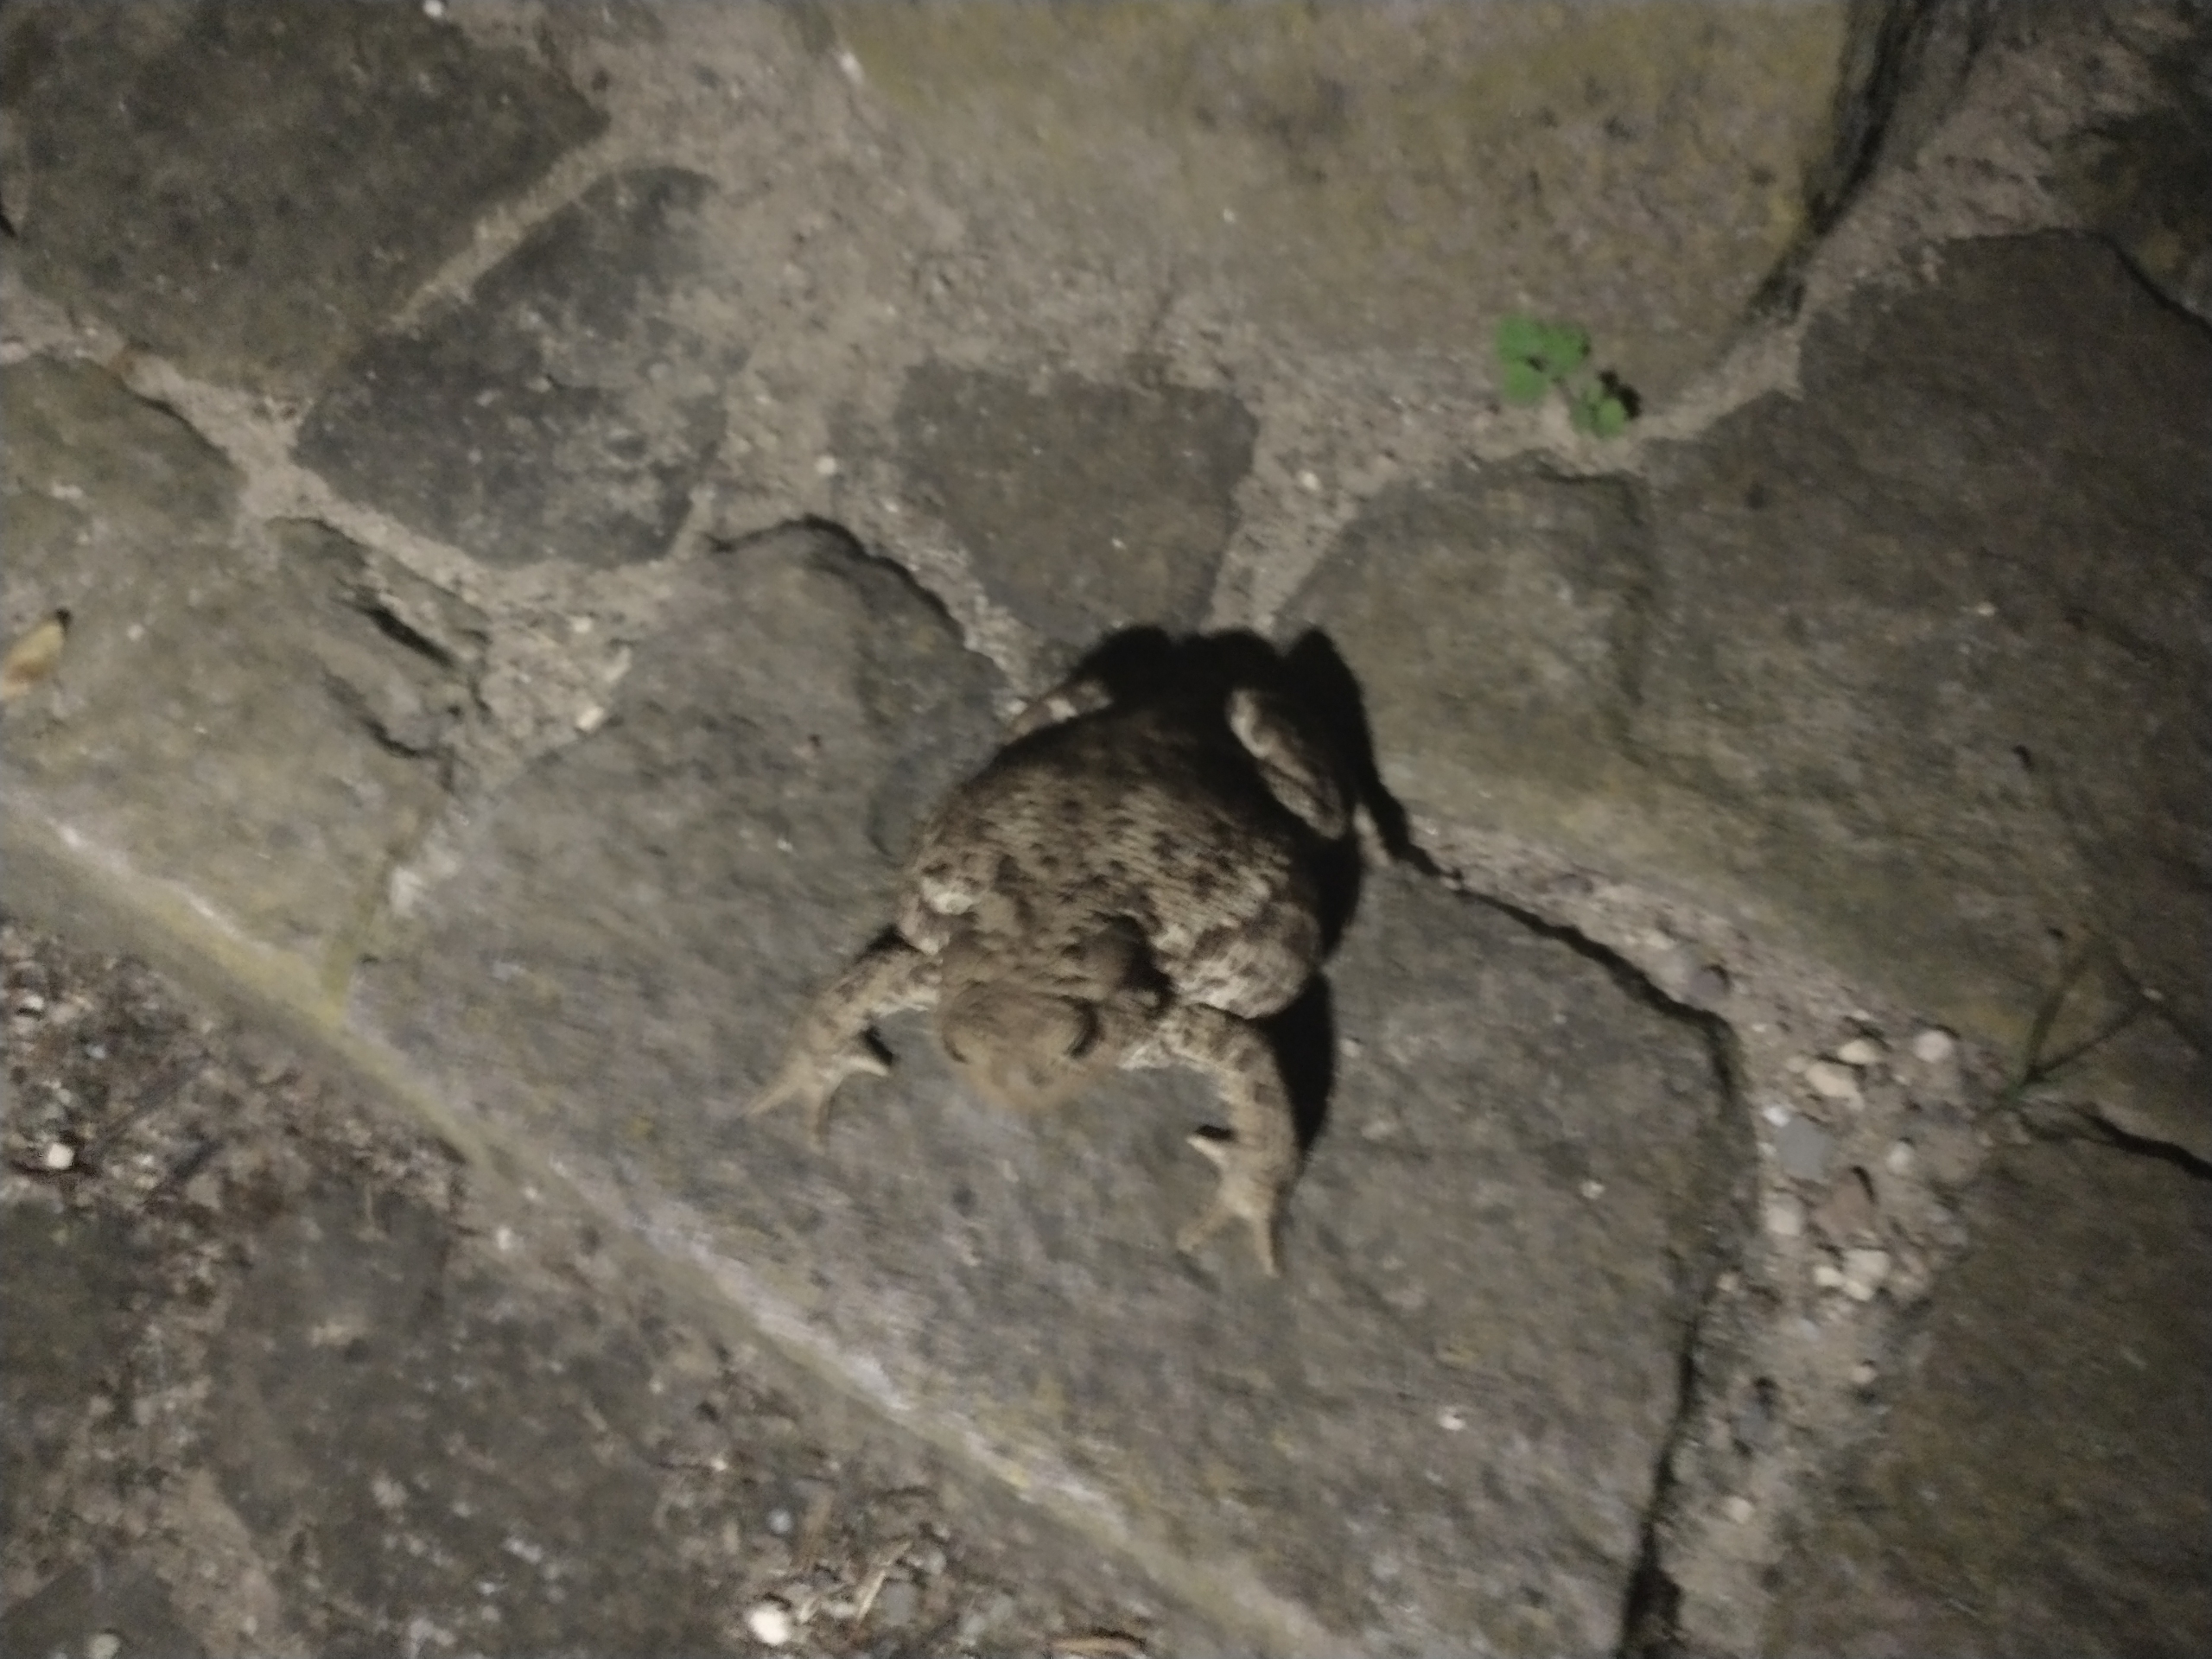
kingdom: Animalia
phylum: Chordata
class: Amphibia
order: Anura
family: Bufonidae
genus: Bufo
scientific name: Bufo bufo
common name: Skrubtudse
